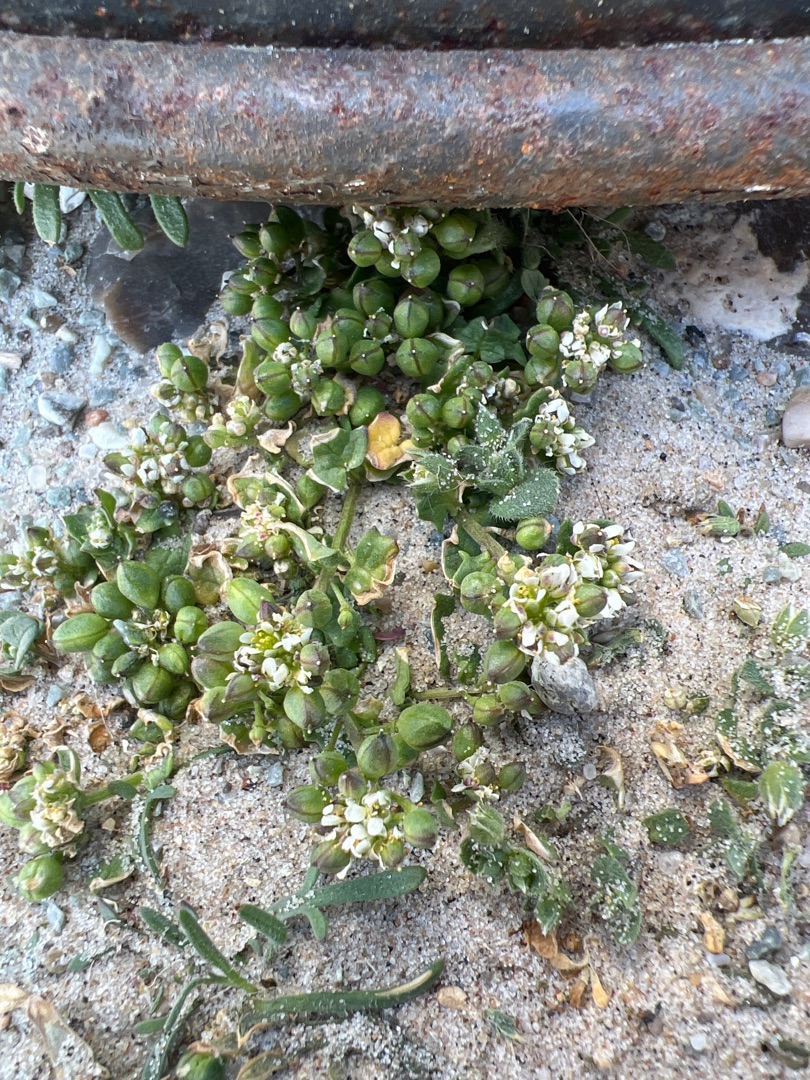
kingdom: Plantae
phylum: Tracheophyta
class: Magnoliopsida
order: Brassicales
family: Brassicaceae
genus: Cochlearia
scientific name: Cochlearia danica
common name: Dansk kokleare
